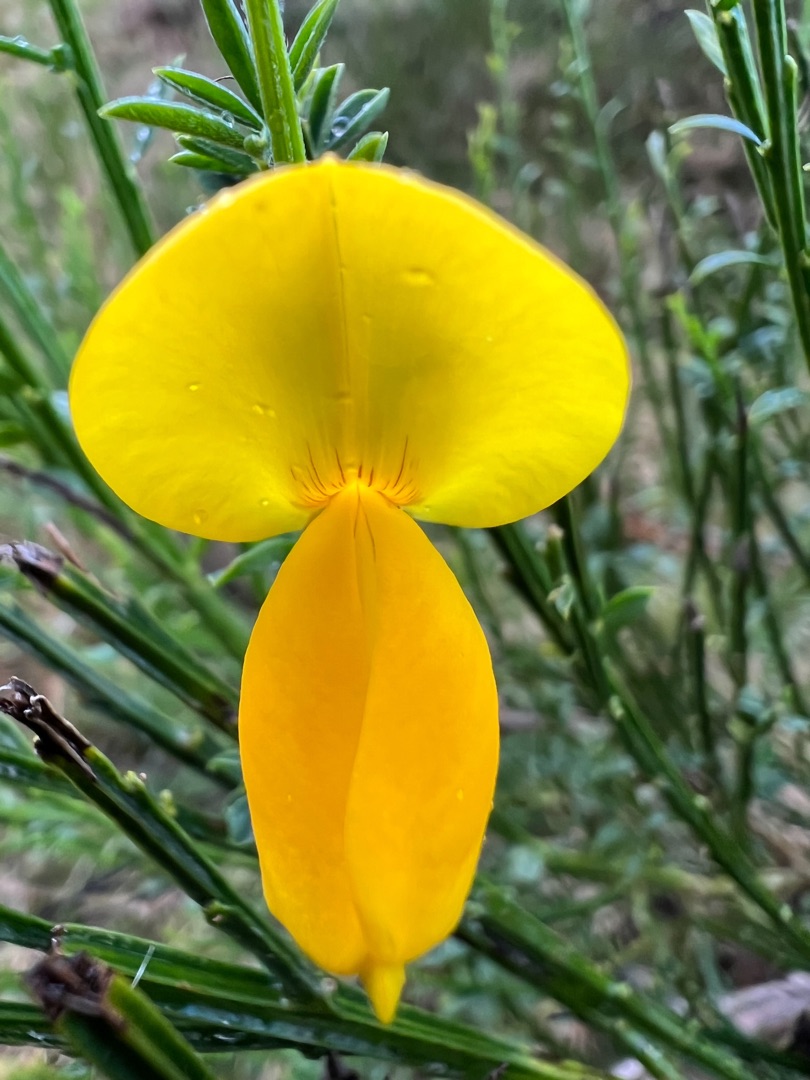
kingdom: Plantae
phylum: Tracheophyta
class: Magnoliopsida
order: Fabales
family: Fabaceae
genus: Cytisus
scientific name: Cytisus scoparius
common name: Almindelig gyvel
